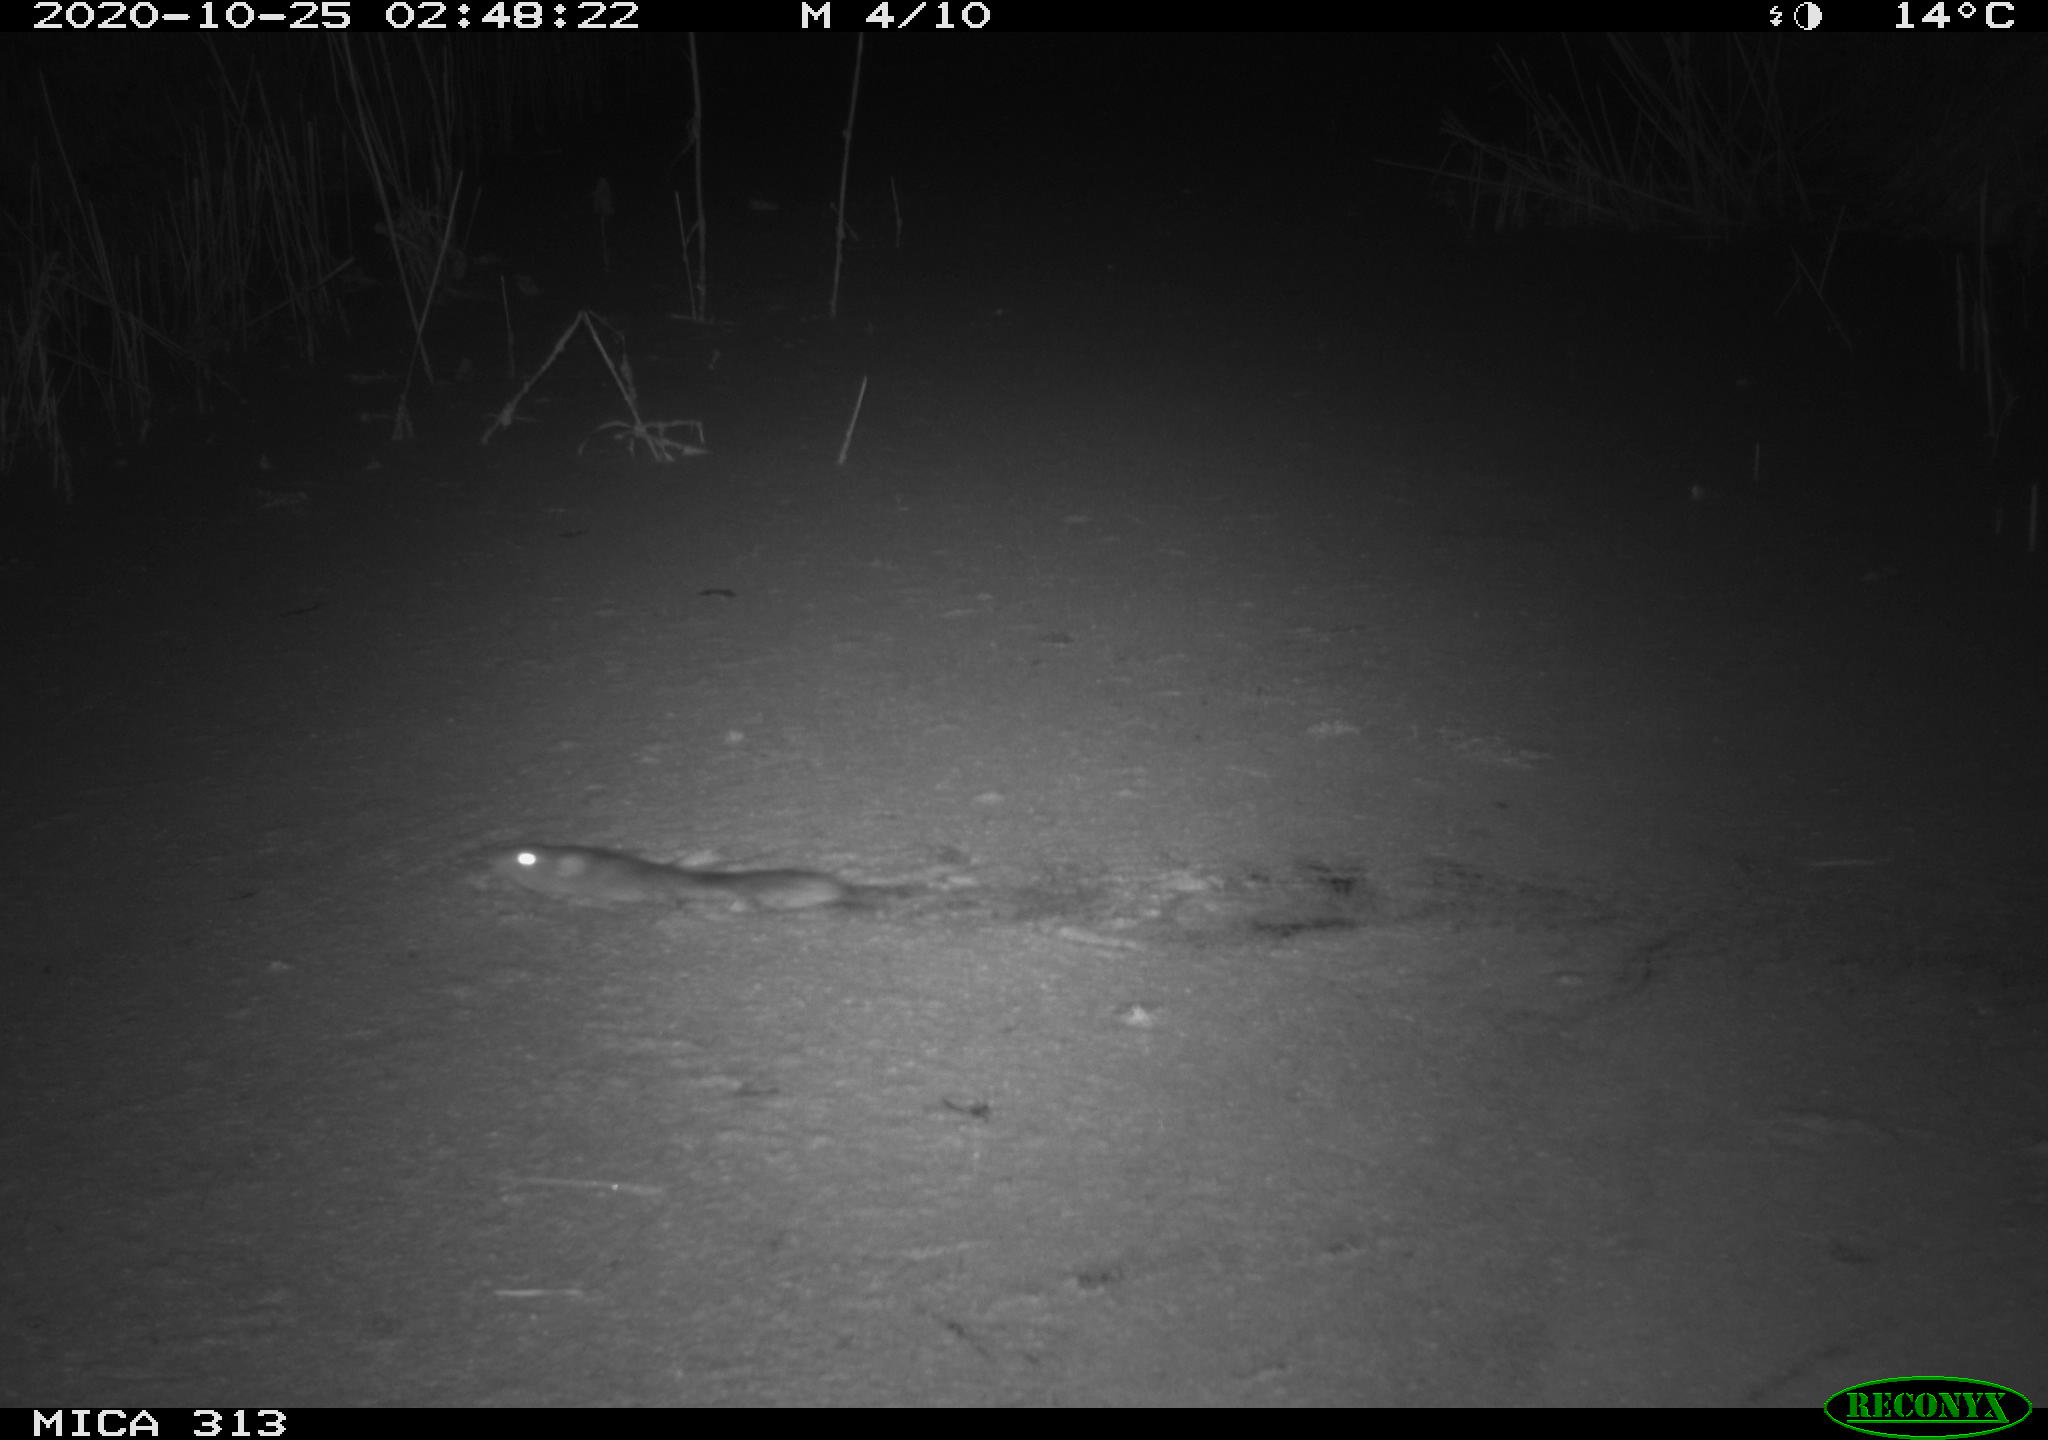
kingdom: Animalia
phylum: Chordata
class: Mammalia
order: Rodentia
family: Muridae
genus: Rattus
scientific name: Rattus norvegicus
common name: Brown rat
